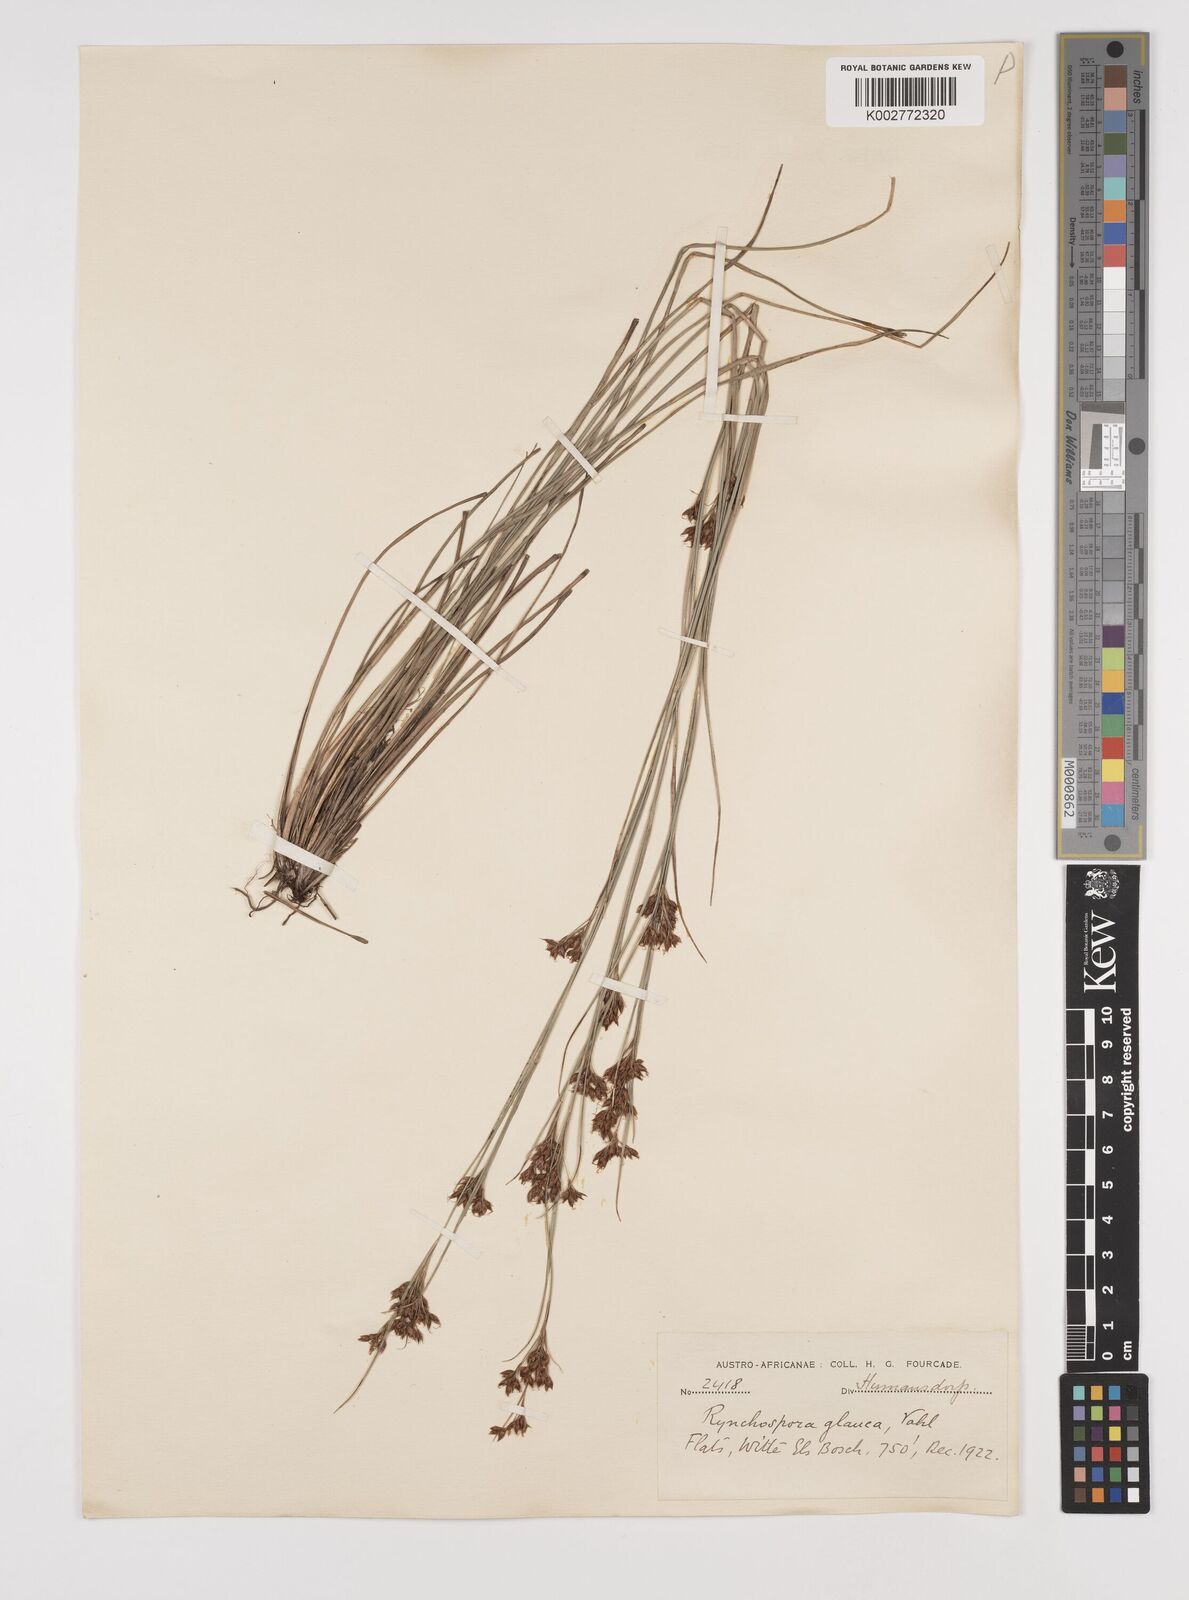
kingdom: Plantae
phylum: Tracheophyta
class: Liliopsida
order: Poales
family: Cyperaceae
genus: Rhynchospora
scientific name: Rhynchospora rugosa
